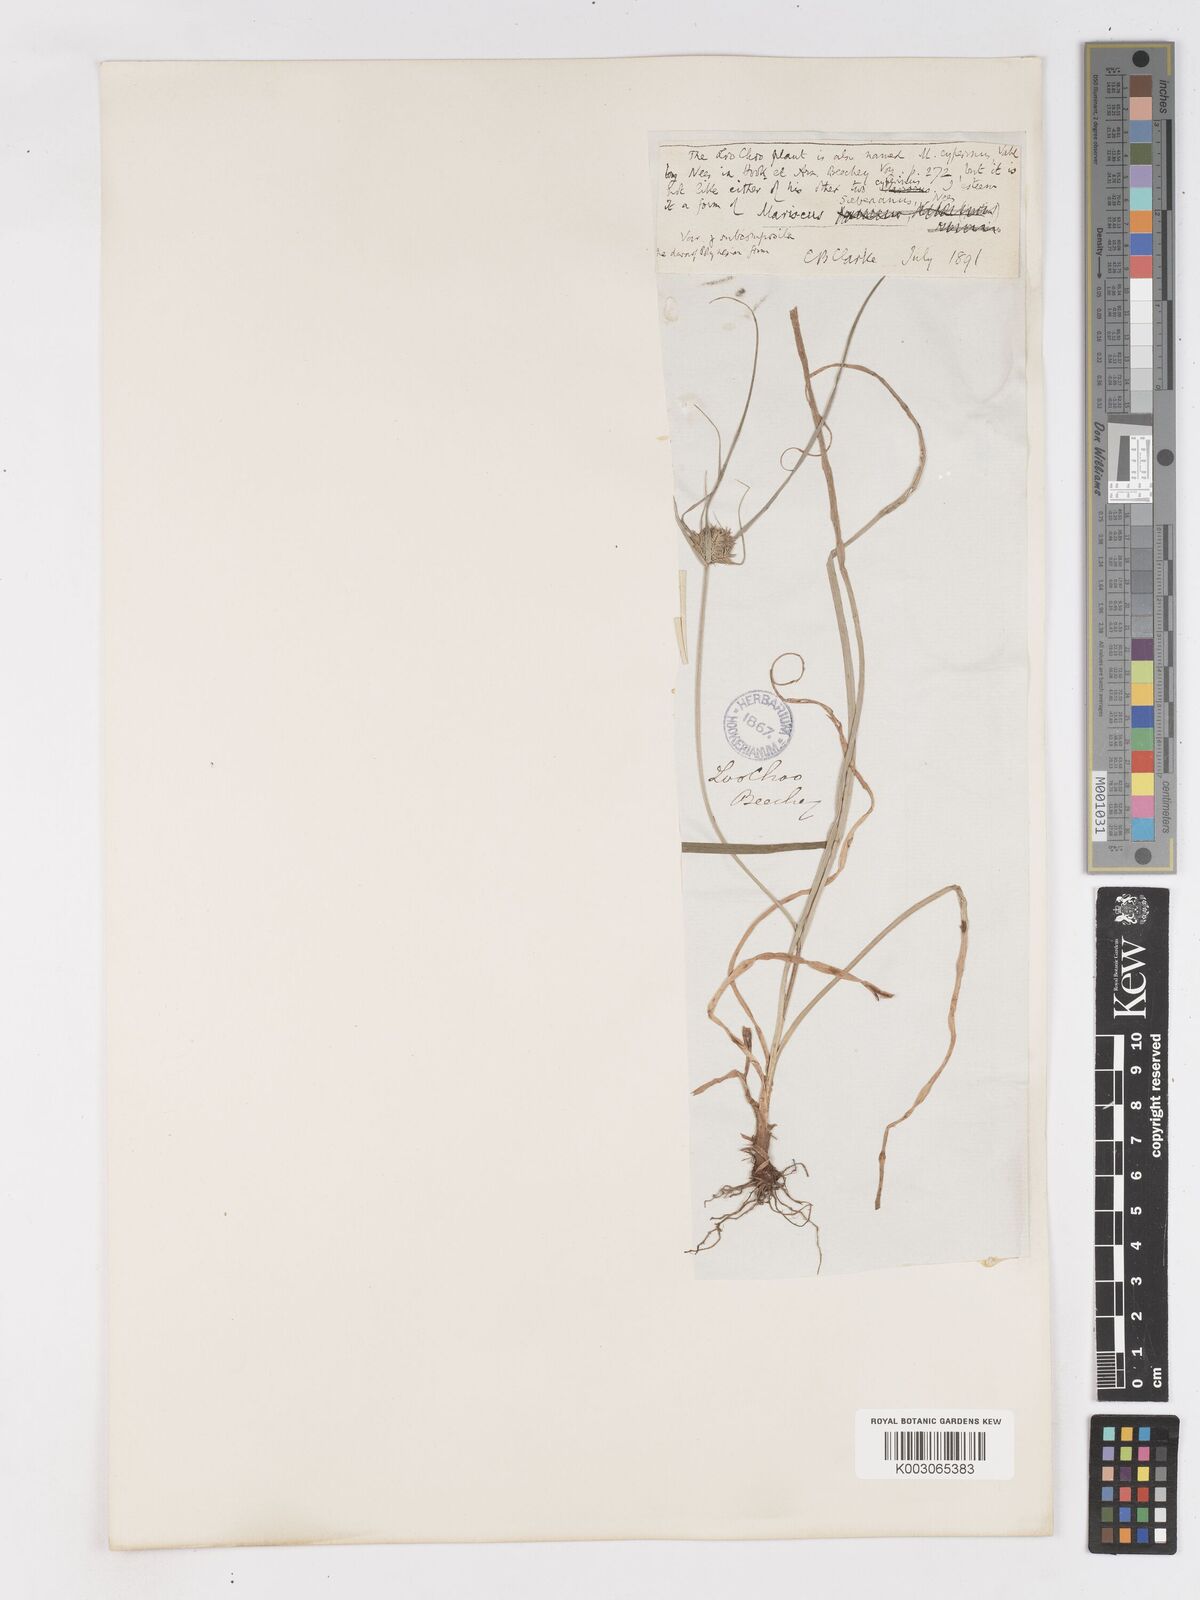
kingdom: Plantae
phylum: Tracheophyta
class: Liliopsida
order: Poales
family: Cyperaceae
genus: Cyperus
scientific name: Cyperus cyperoides
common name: Pacific island flat sedge
